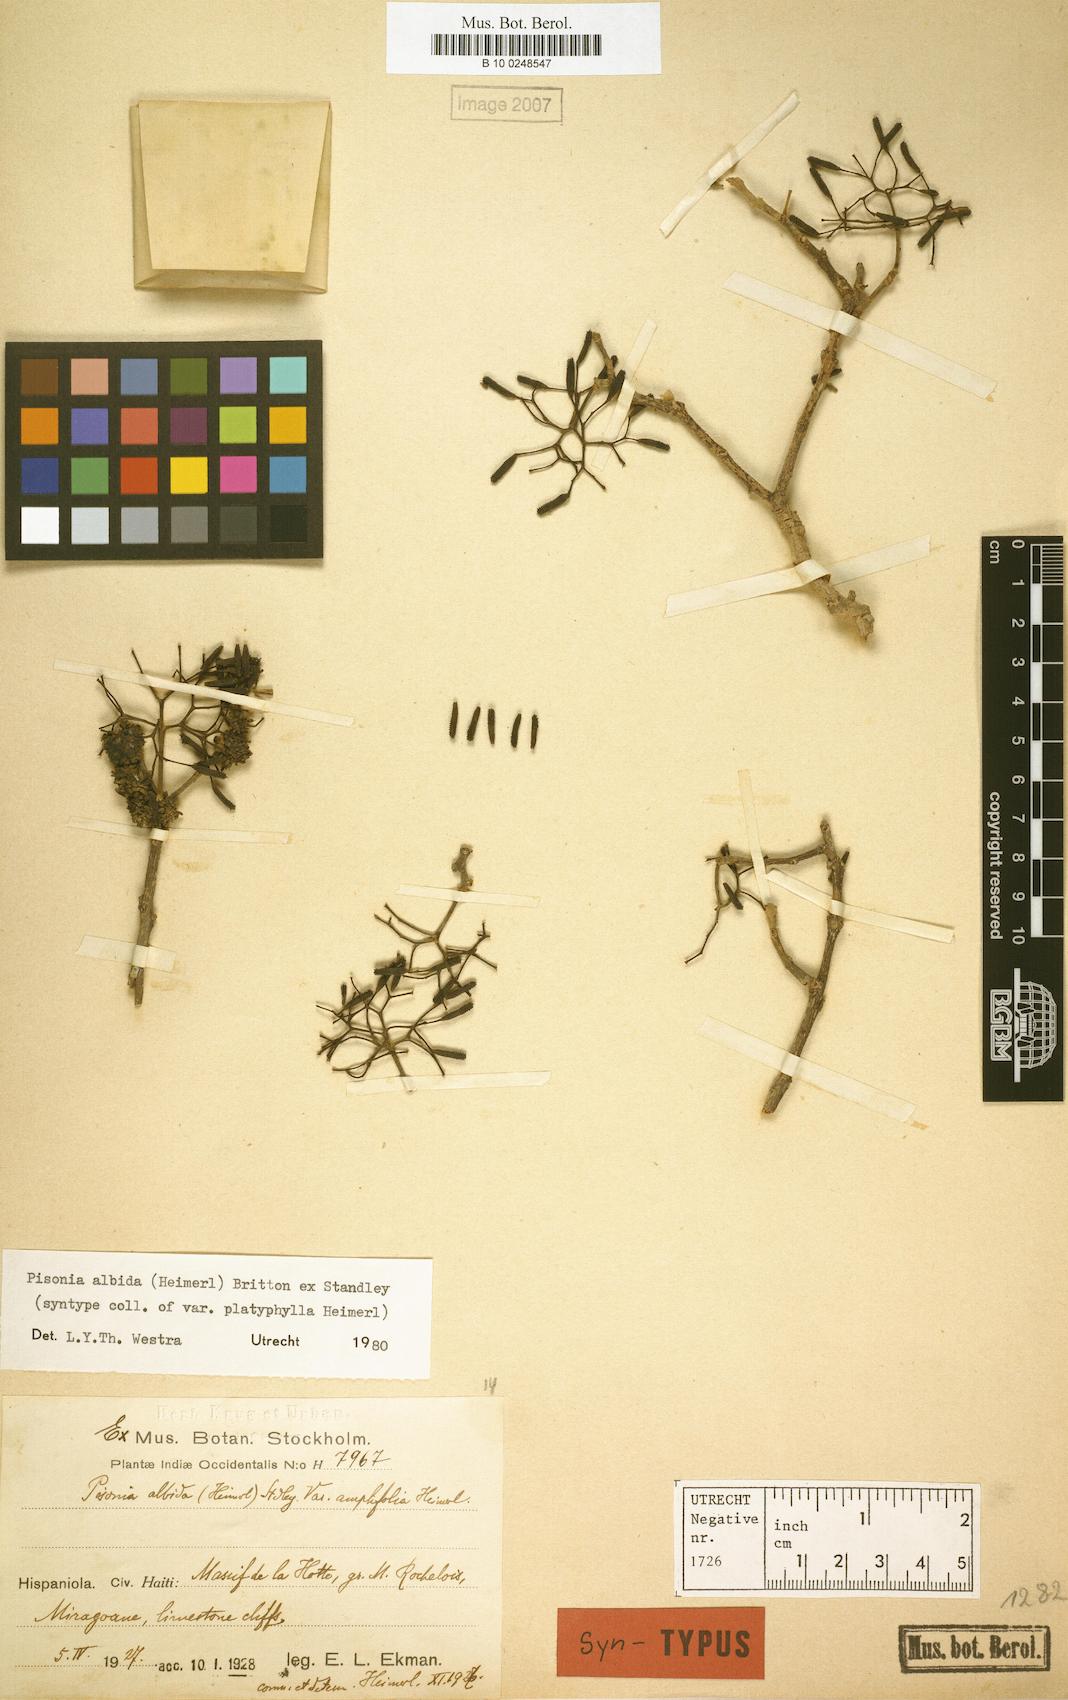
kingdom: Plantae
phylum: Tracheophyta
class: Magnoliopsida
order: Caryophyllales
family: Nyctaginaceae
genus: Pisonia
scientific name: Pisonia albida
